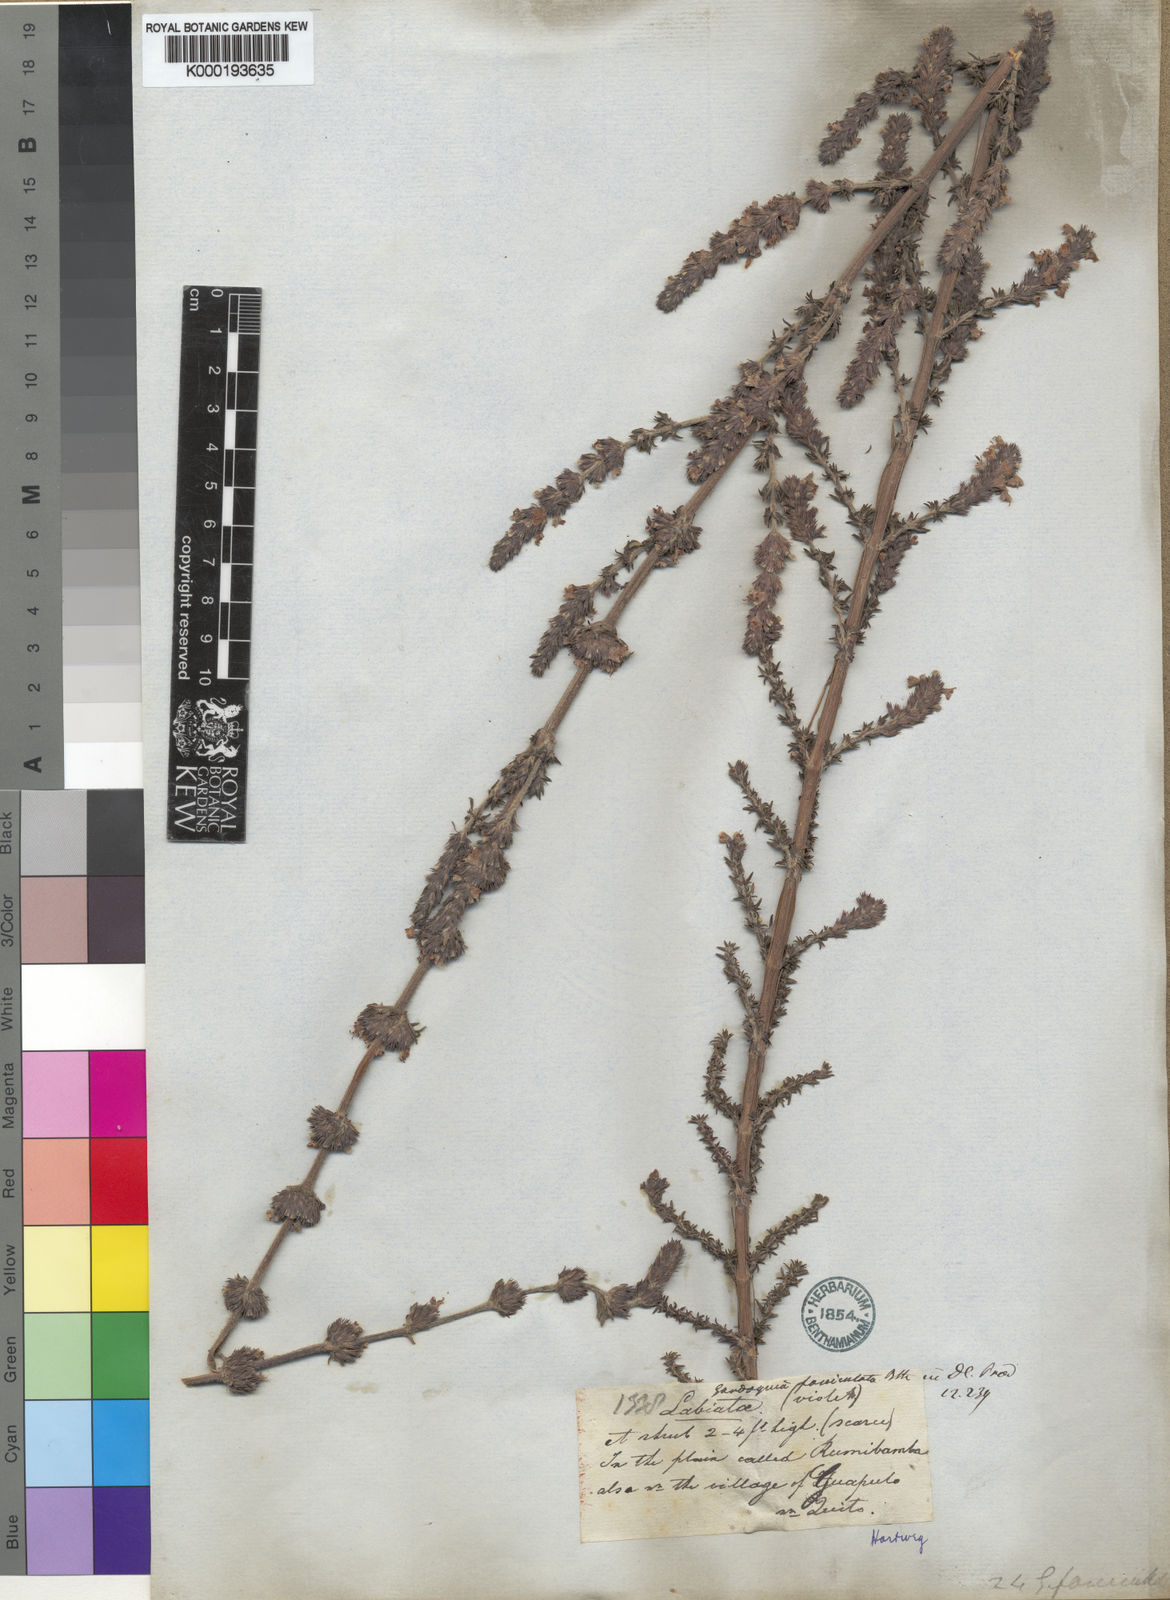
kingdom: Plantae
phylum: Tracheophyta
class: Magnoliopsida
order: Lamiales
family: Lamiaceae
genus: Clinopodium
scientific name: Clinopodium
